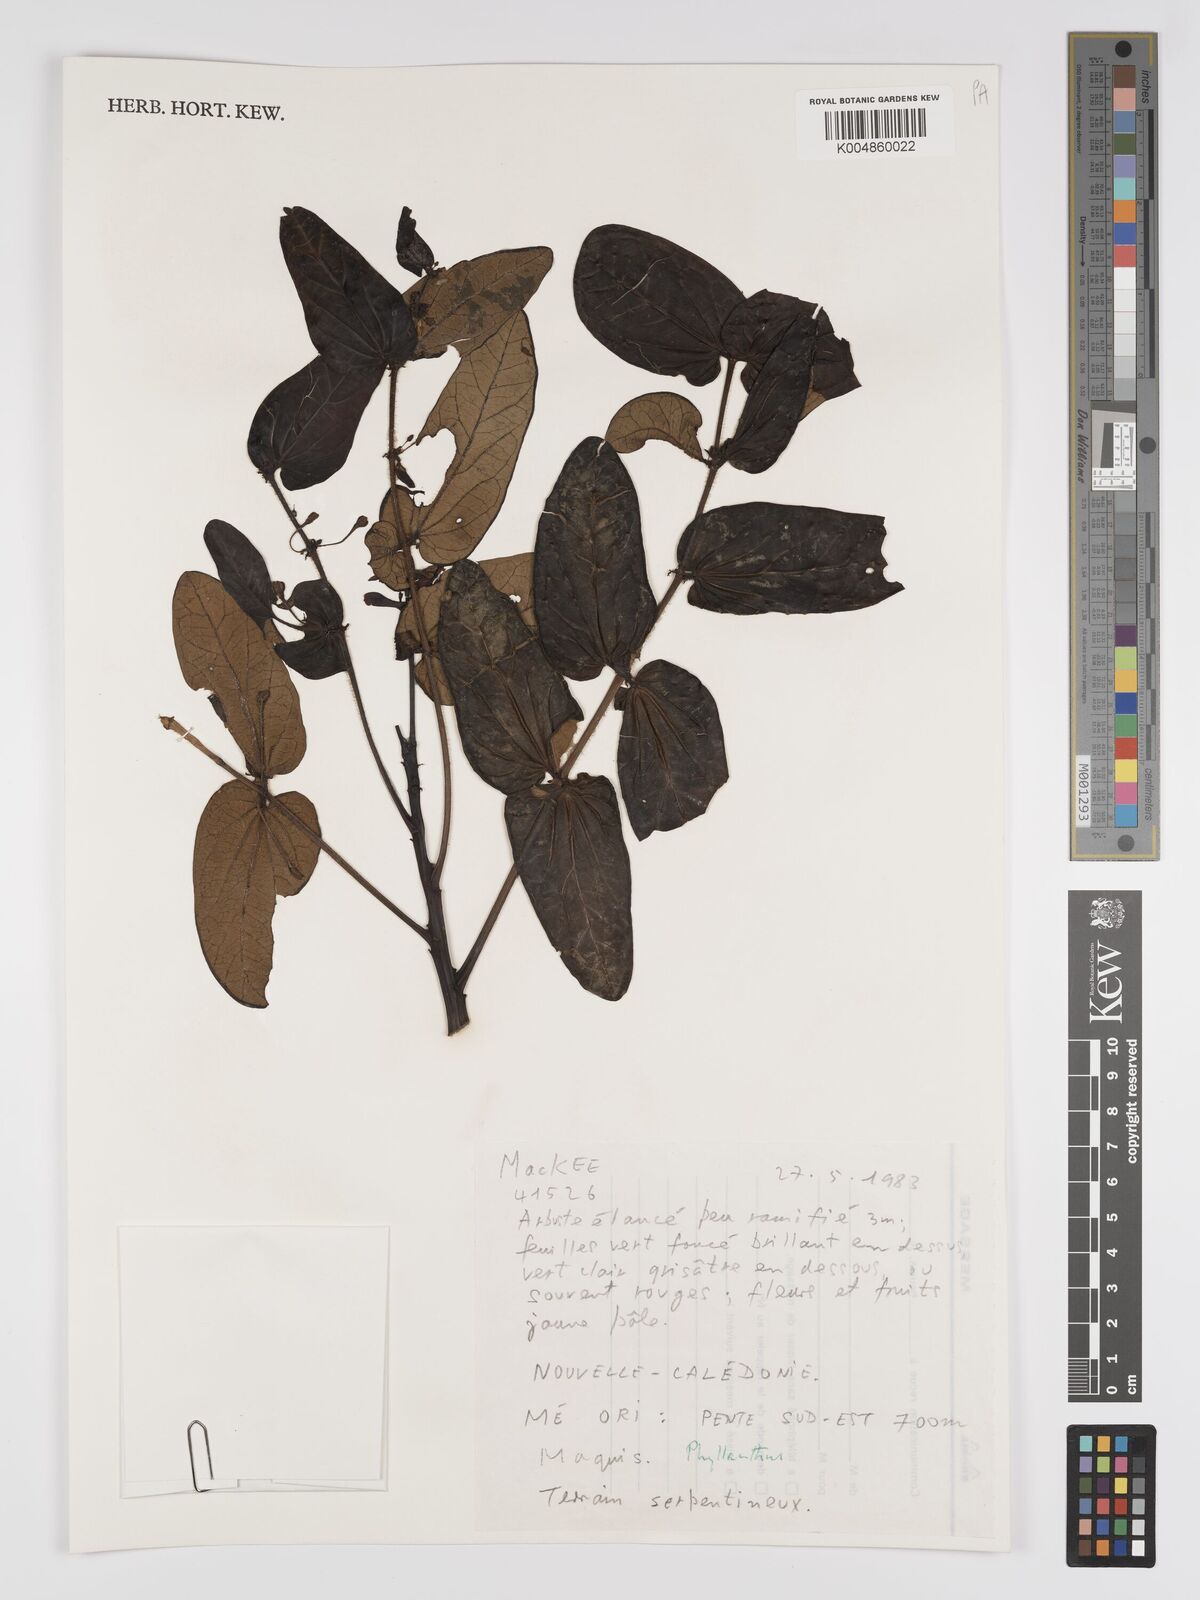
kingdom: Plantae
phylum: Tracheophyta
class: Magnoliopsida
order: Malpighiales
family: Phyllanthaceae
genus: Phyllanthus
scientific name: Phyllanthus
